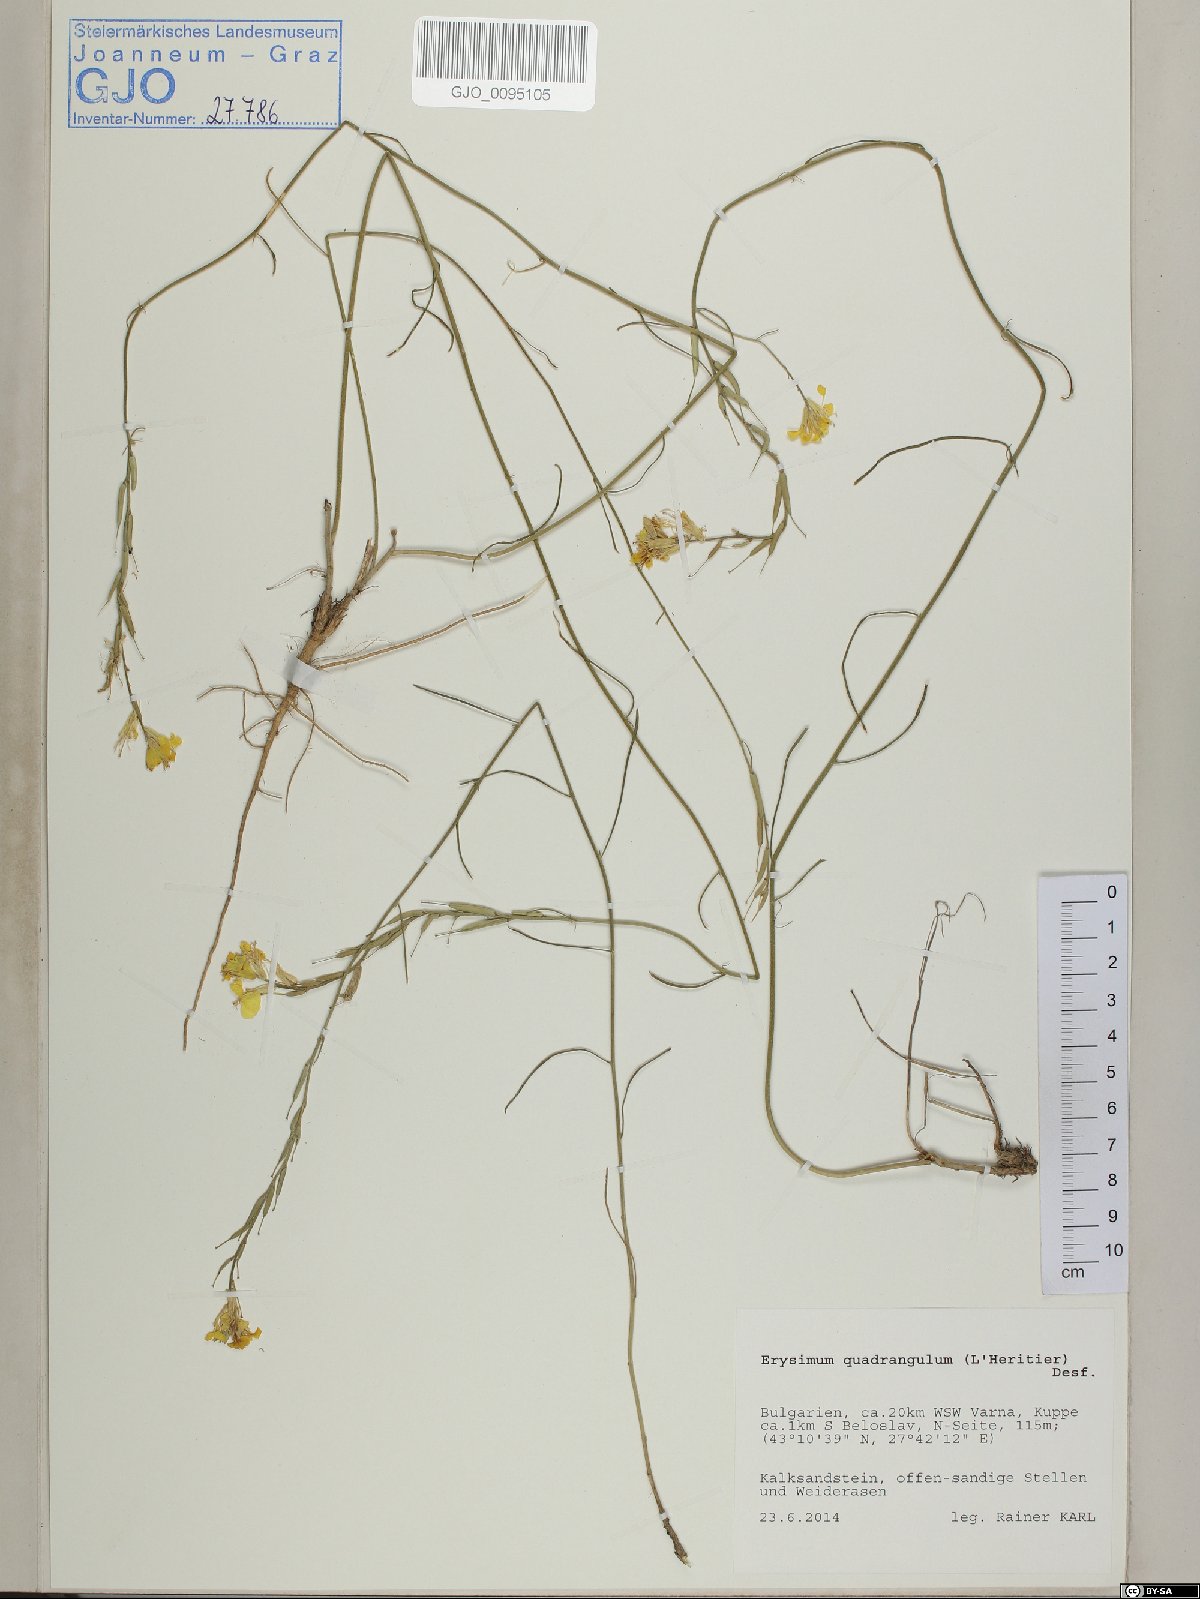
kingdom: Plantae
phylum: Tracheophyta
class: Magnoliopsida
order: Brassicales
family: Brassicaceae
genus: Erysimum
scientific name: Erysimum quadrangulum
